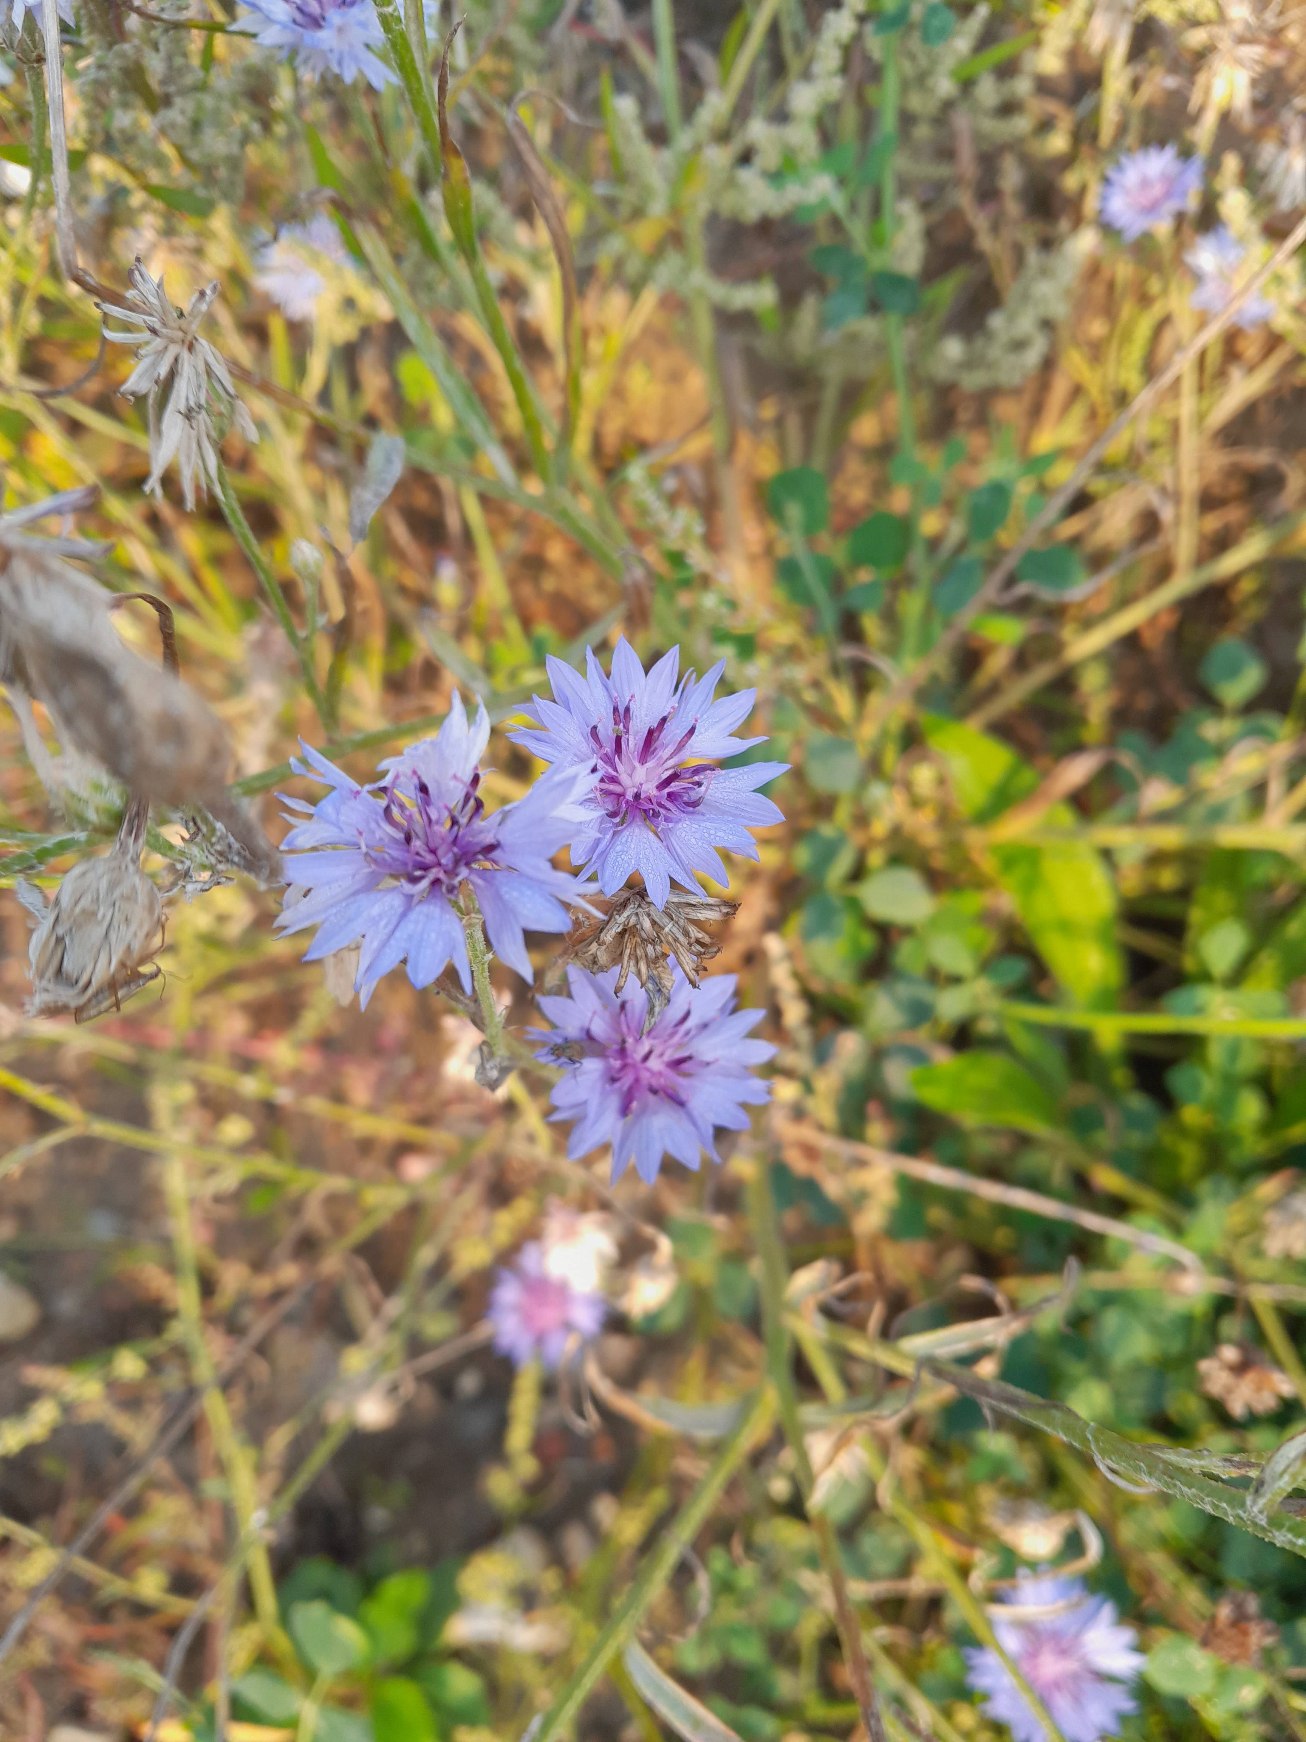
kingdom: Plantae
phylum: Tracheophyta
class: Magnoliopsida
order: Asterales
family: Asteraceae
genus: Centaurea
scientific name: Centaurea cyanus
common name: Kornblomst
